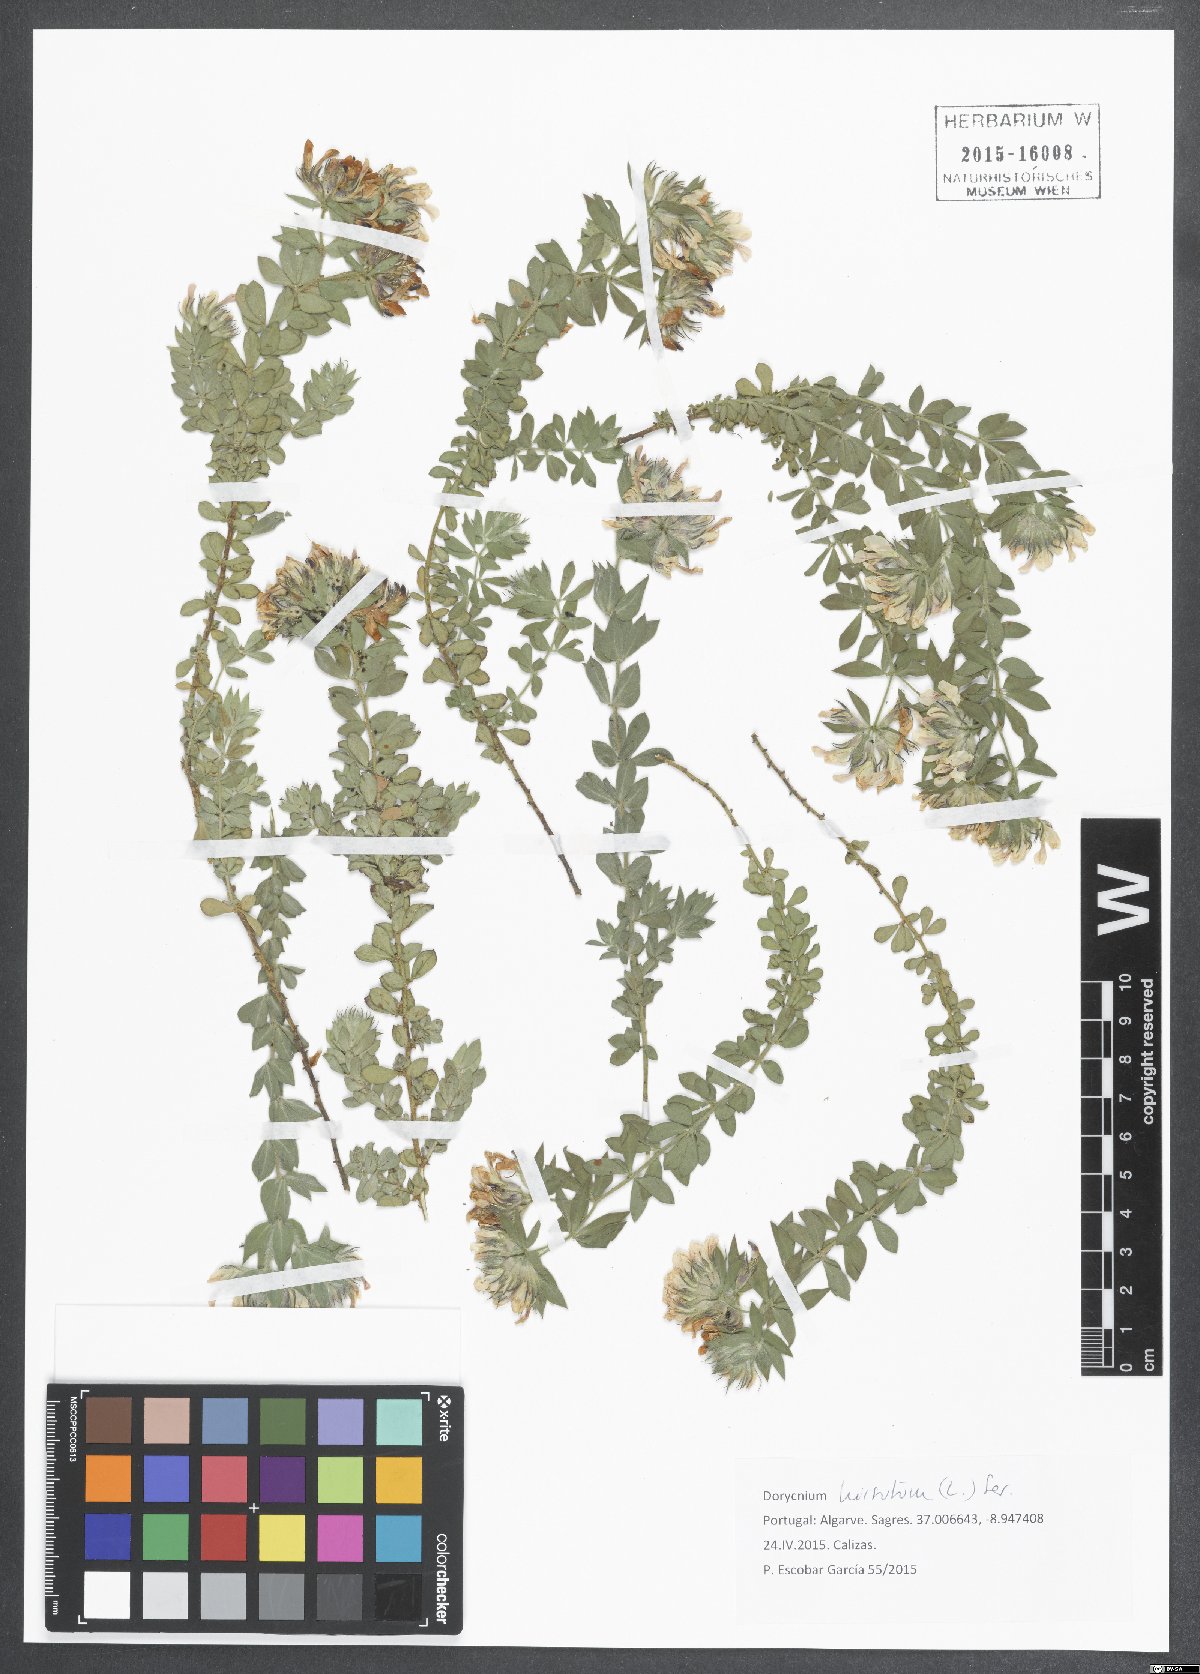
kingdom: Plantae
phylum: Tracheophyta
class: Magnoliopsida
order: Fabales
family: Fabaceae
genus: Lotus
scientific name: Lotus hirsutus
